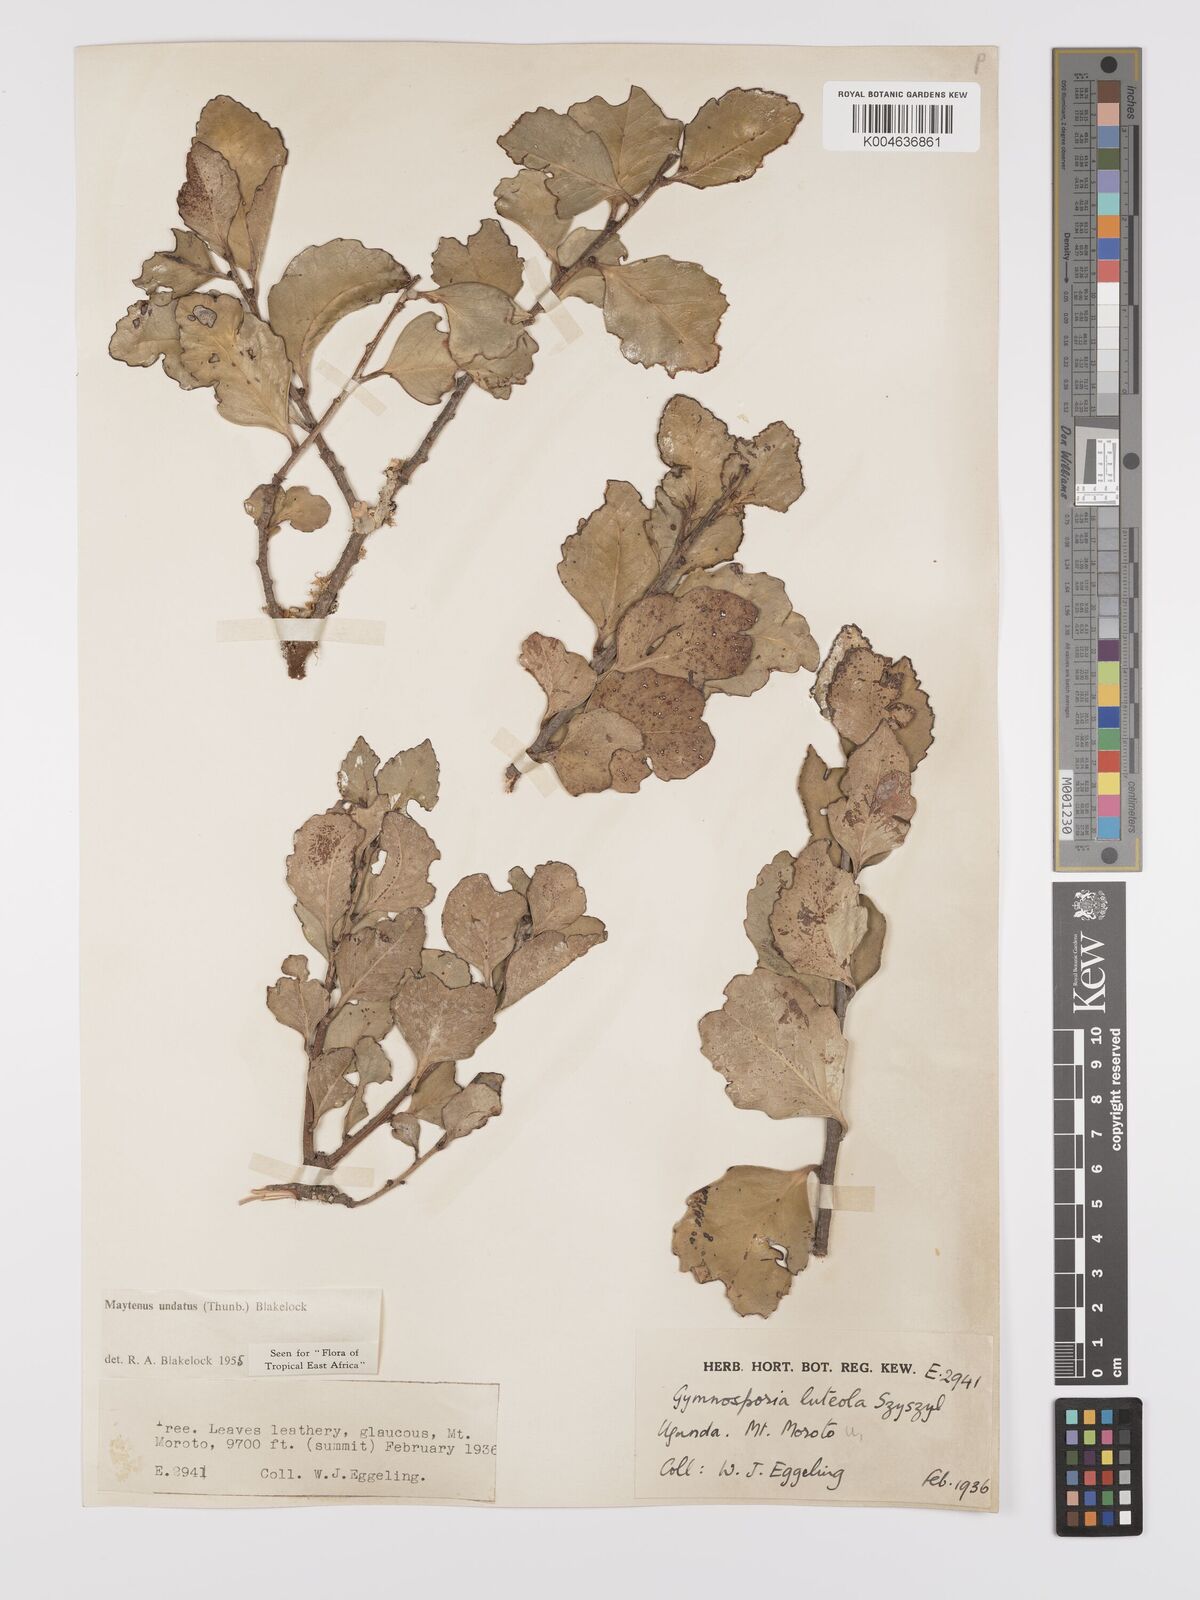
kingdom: Plantae
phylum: Tracheophyta
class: Magnoliopsida
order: Celastrales
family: Celastraceae
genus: Gymnosporia
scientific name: Gymnosporia undata
